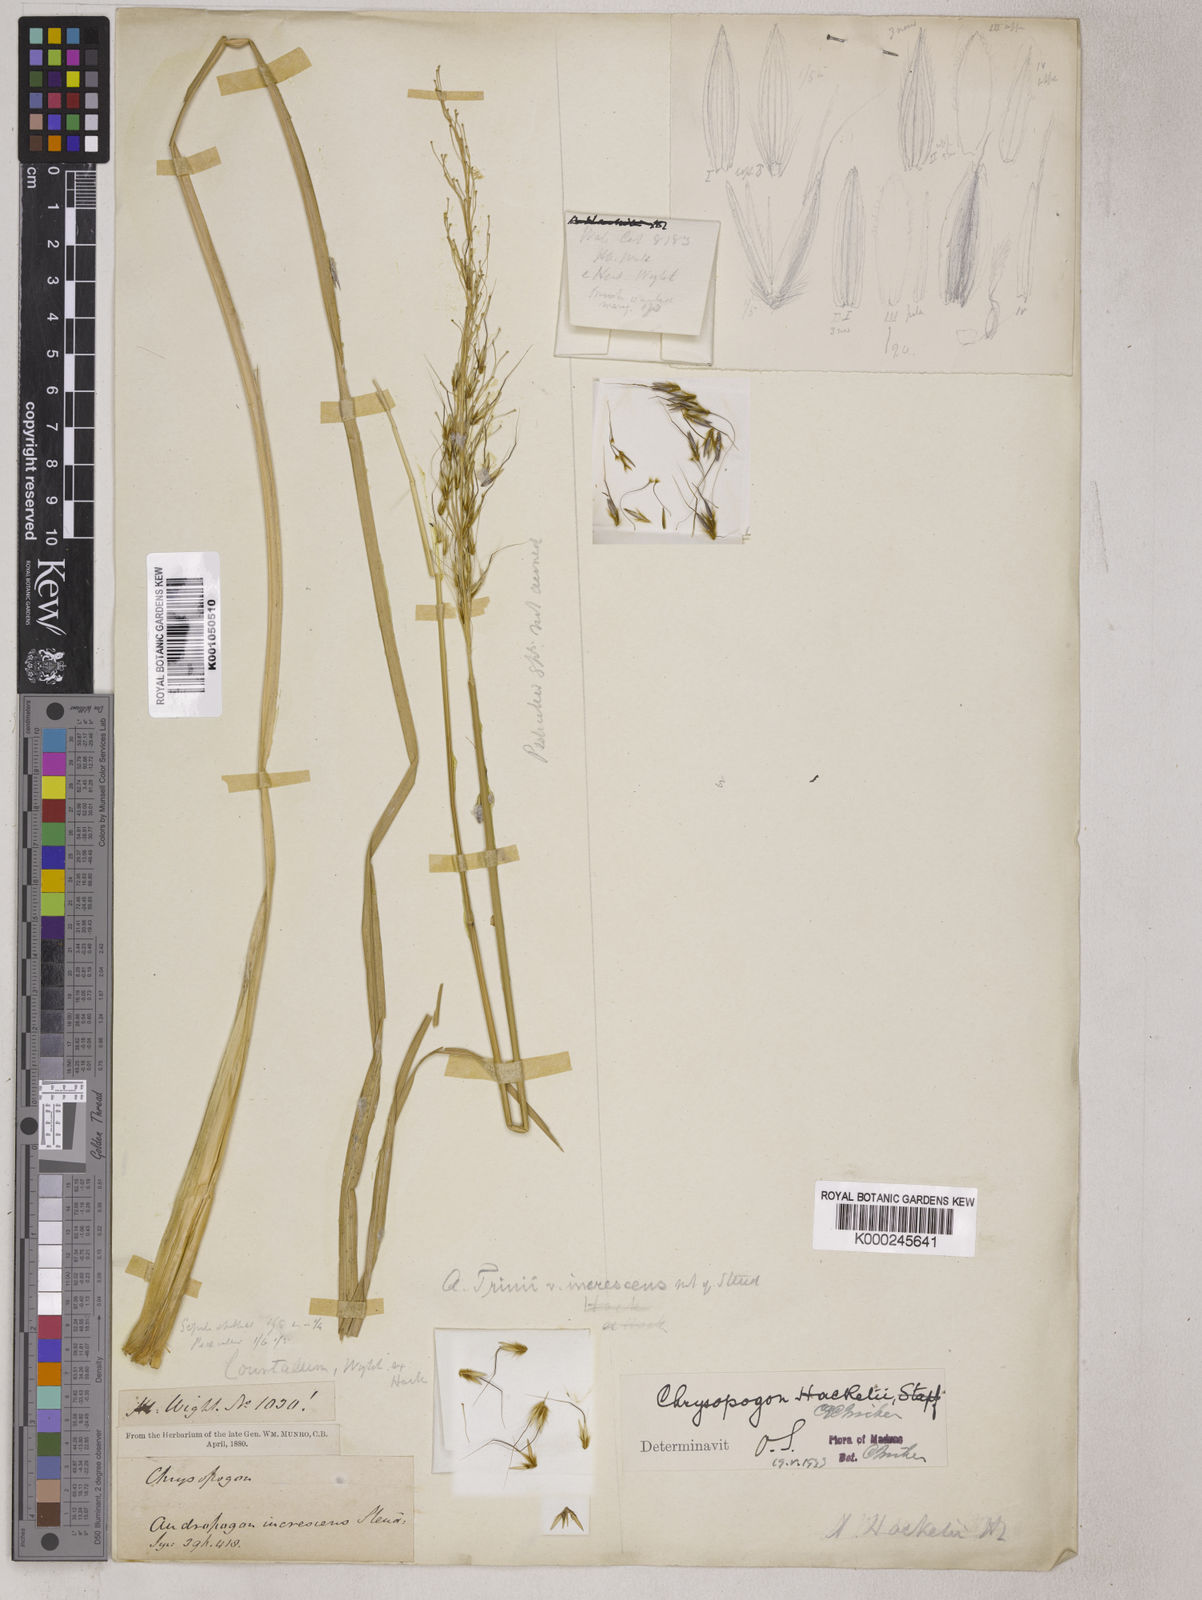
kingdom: Plantae
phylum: Tracheophyta
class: Liliopsida
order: Poales
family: Poaceae
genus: Chrysopogon
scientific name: Chrysopogon hackelii
